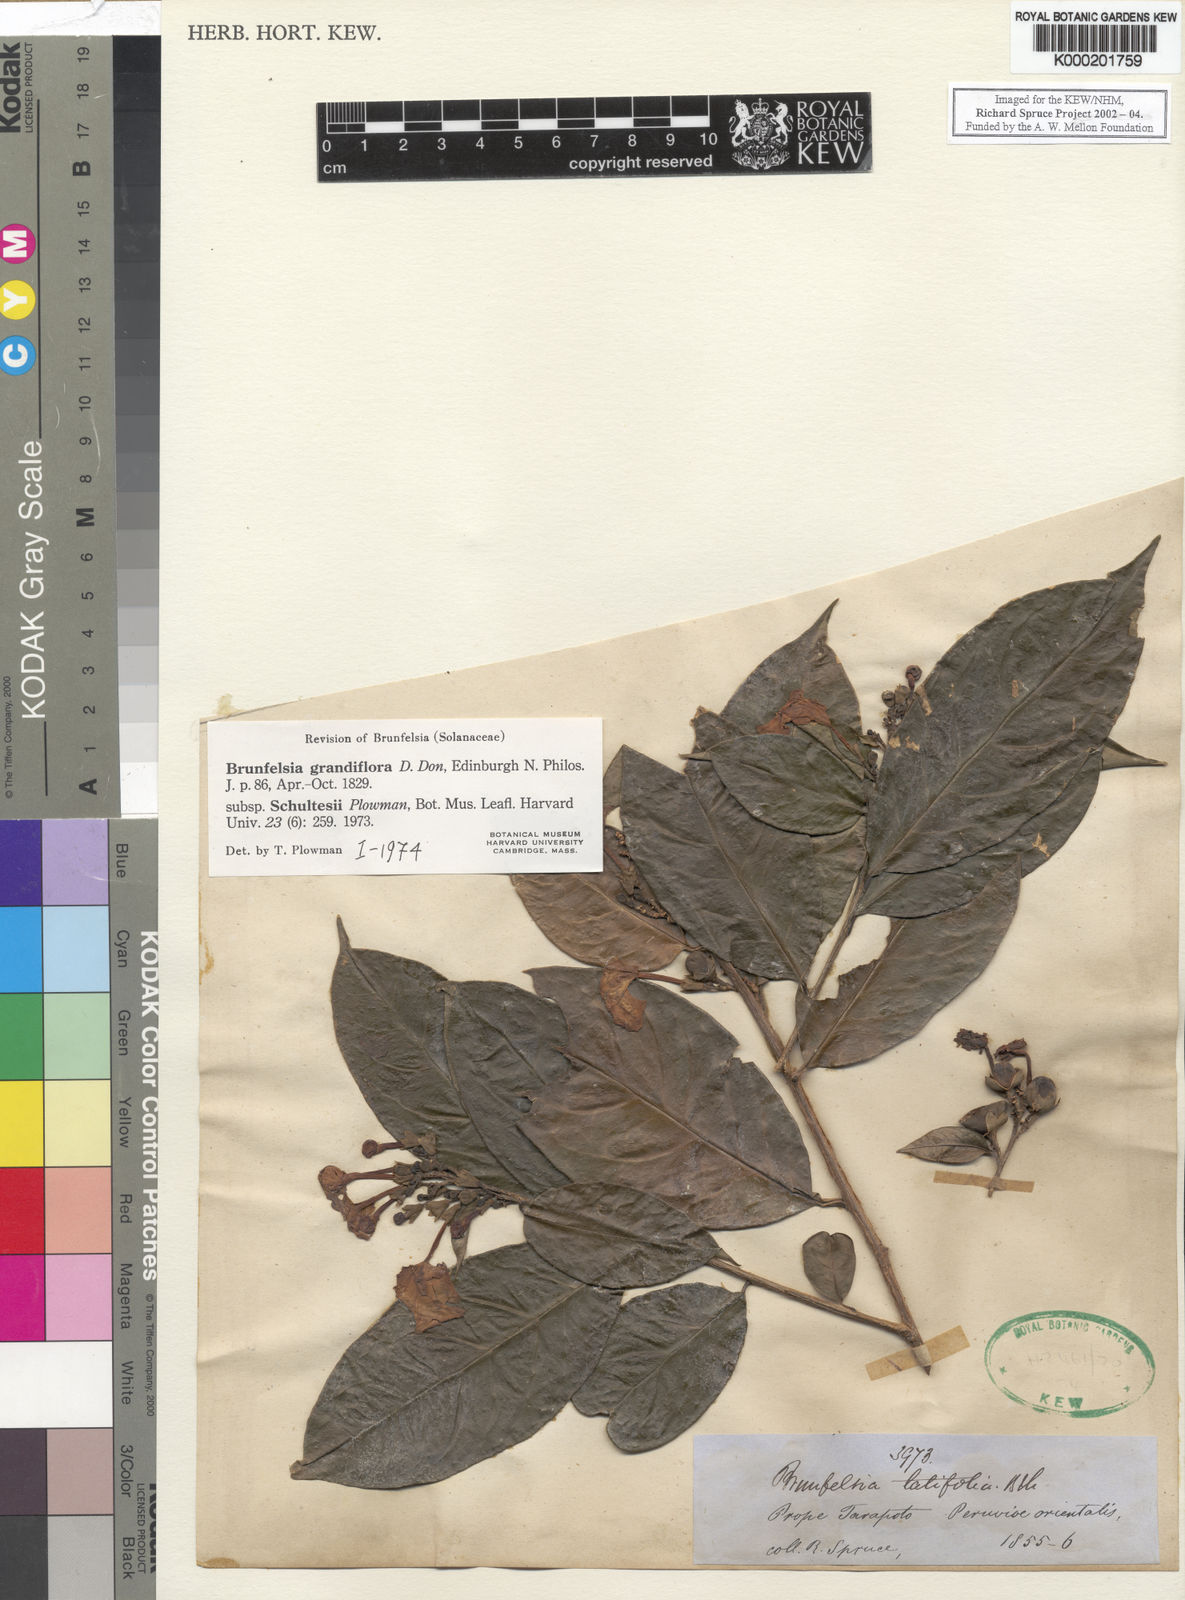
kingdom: Plantae
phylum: Tracheophyta
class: Magnoliopsida
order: Solanales
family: Solanaceae
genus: Brunfelsia
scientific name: Brunfelsia grandiflora
